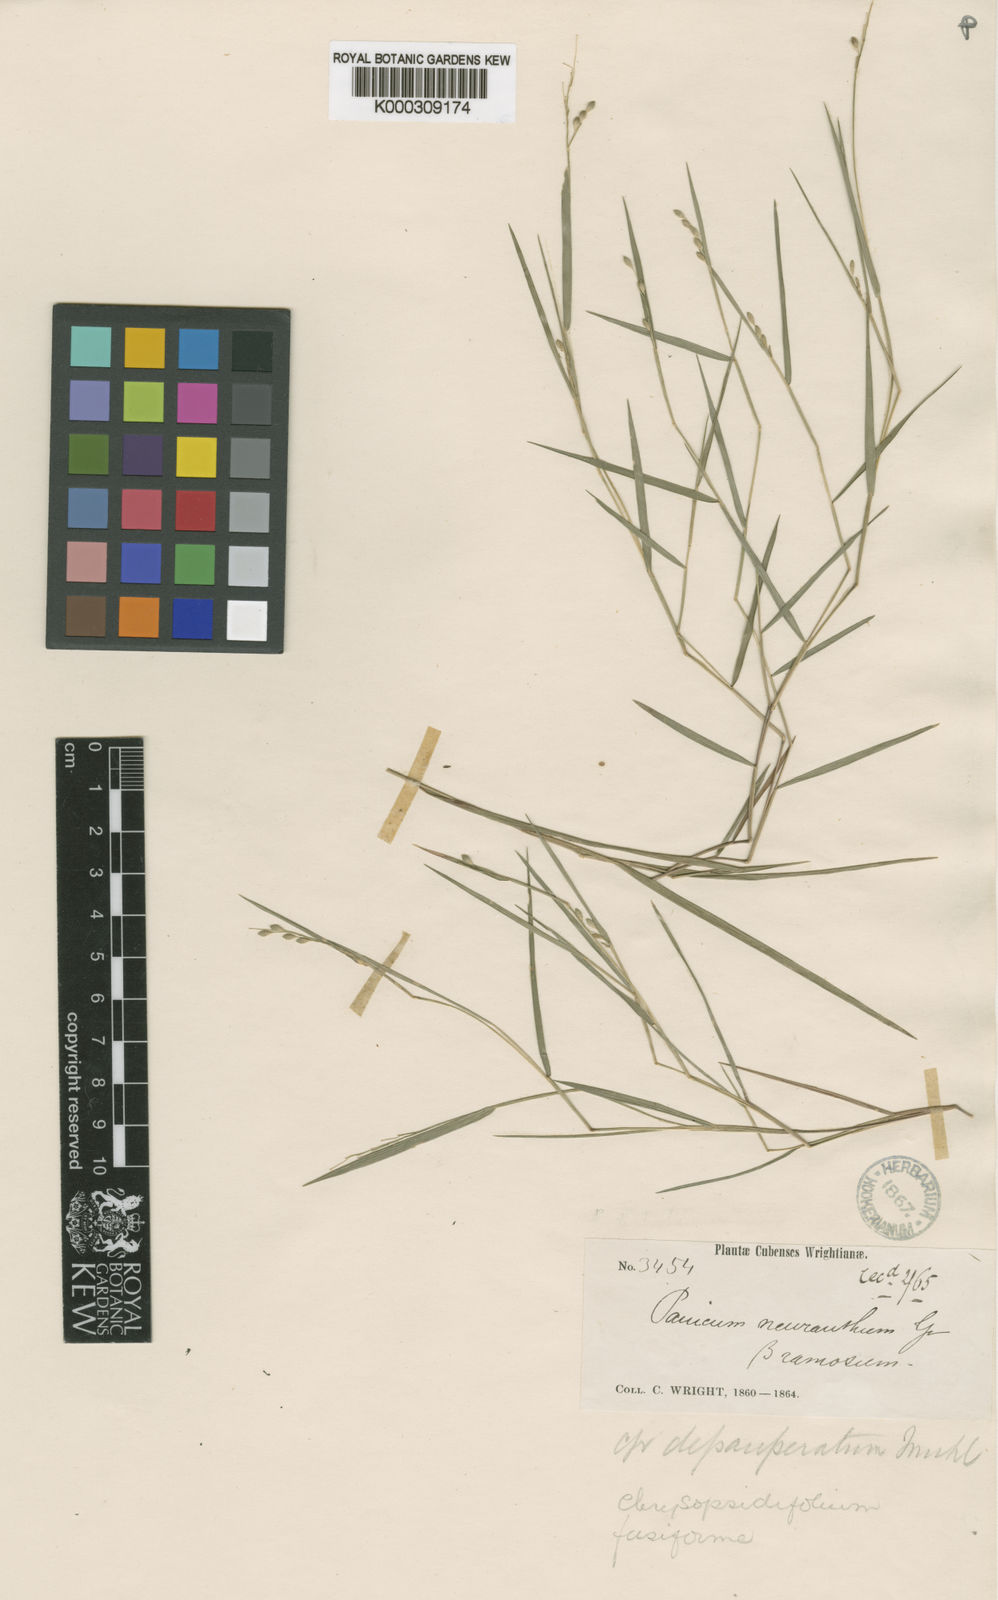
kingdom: Plantae
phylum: Tracheophyta
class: Liliopsida
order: Poales
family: Poaceae
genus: Dichanthelium
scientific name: Dichanthelium aciculare
